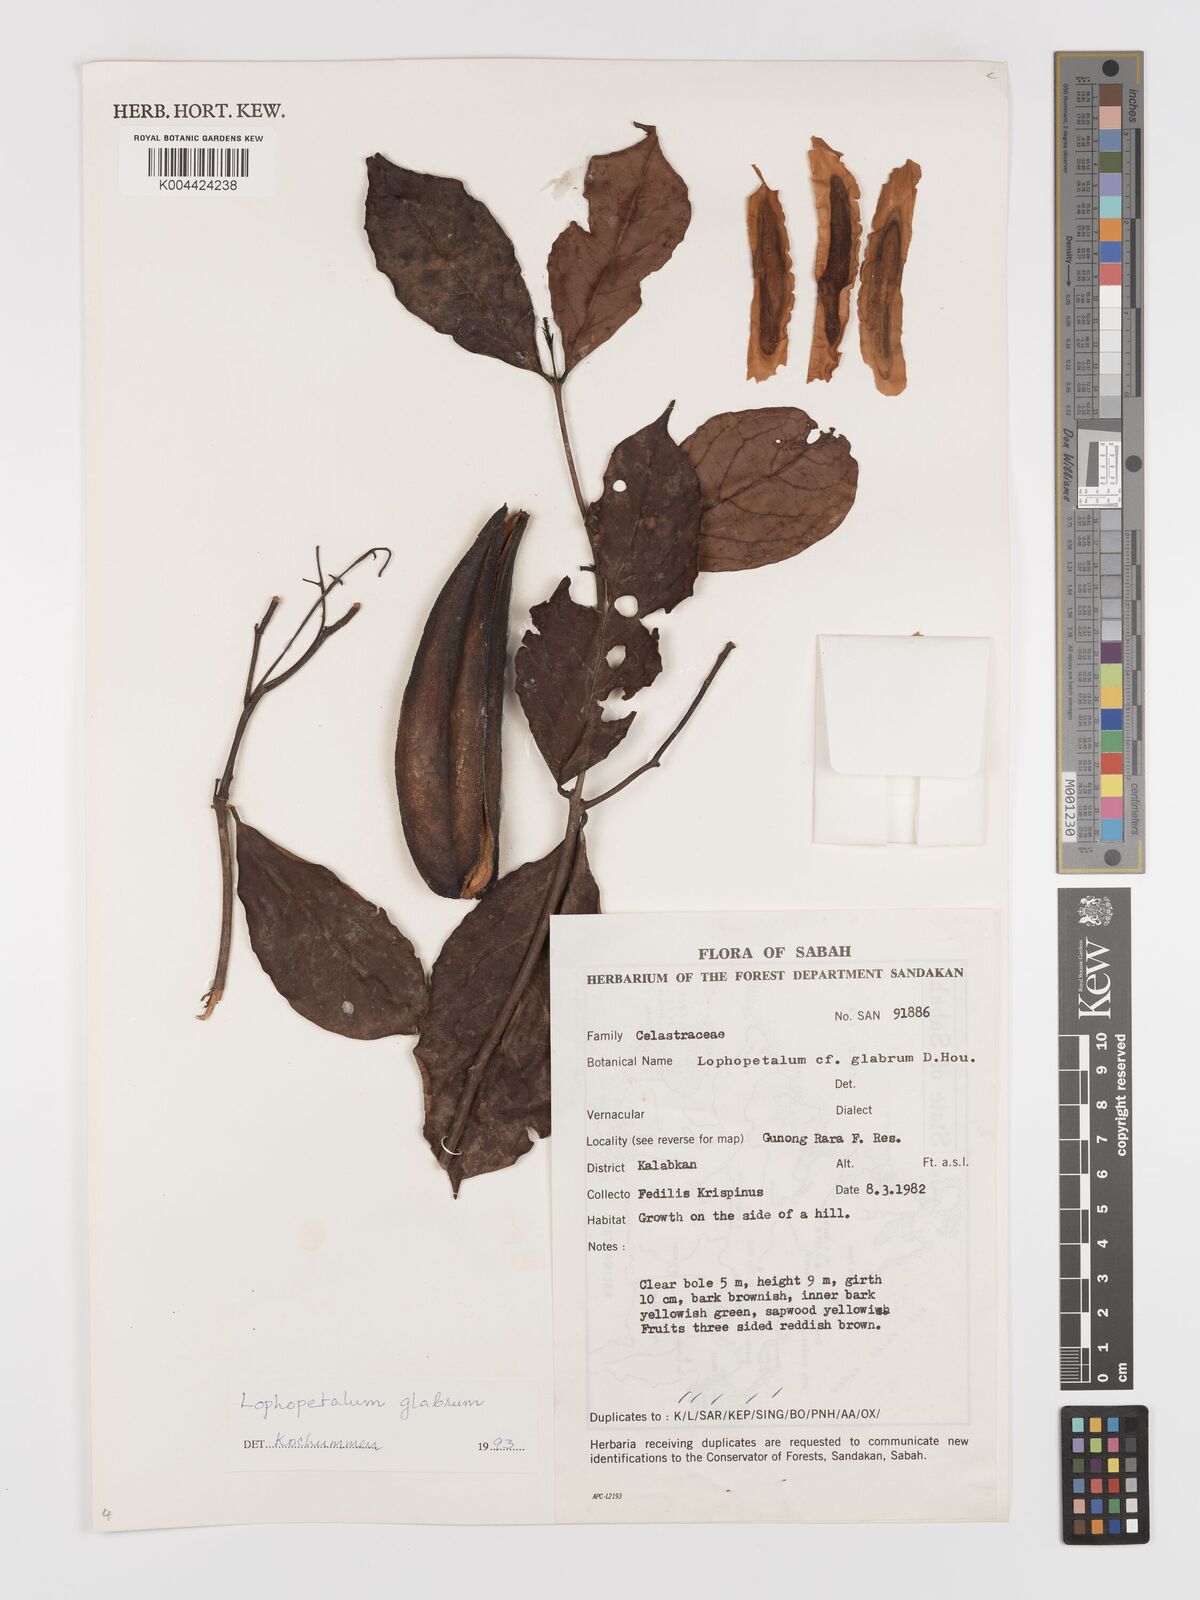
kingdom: Plantae
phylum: Tracheophyta
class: Magnoliopsida
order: Celastrales
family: Celastraceae
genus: Lophopetalum
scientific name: Lophopetalum glabrum
